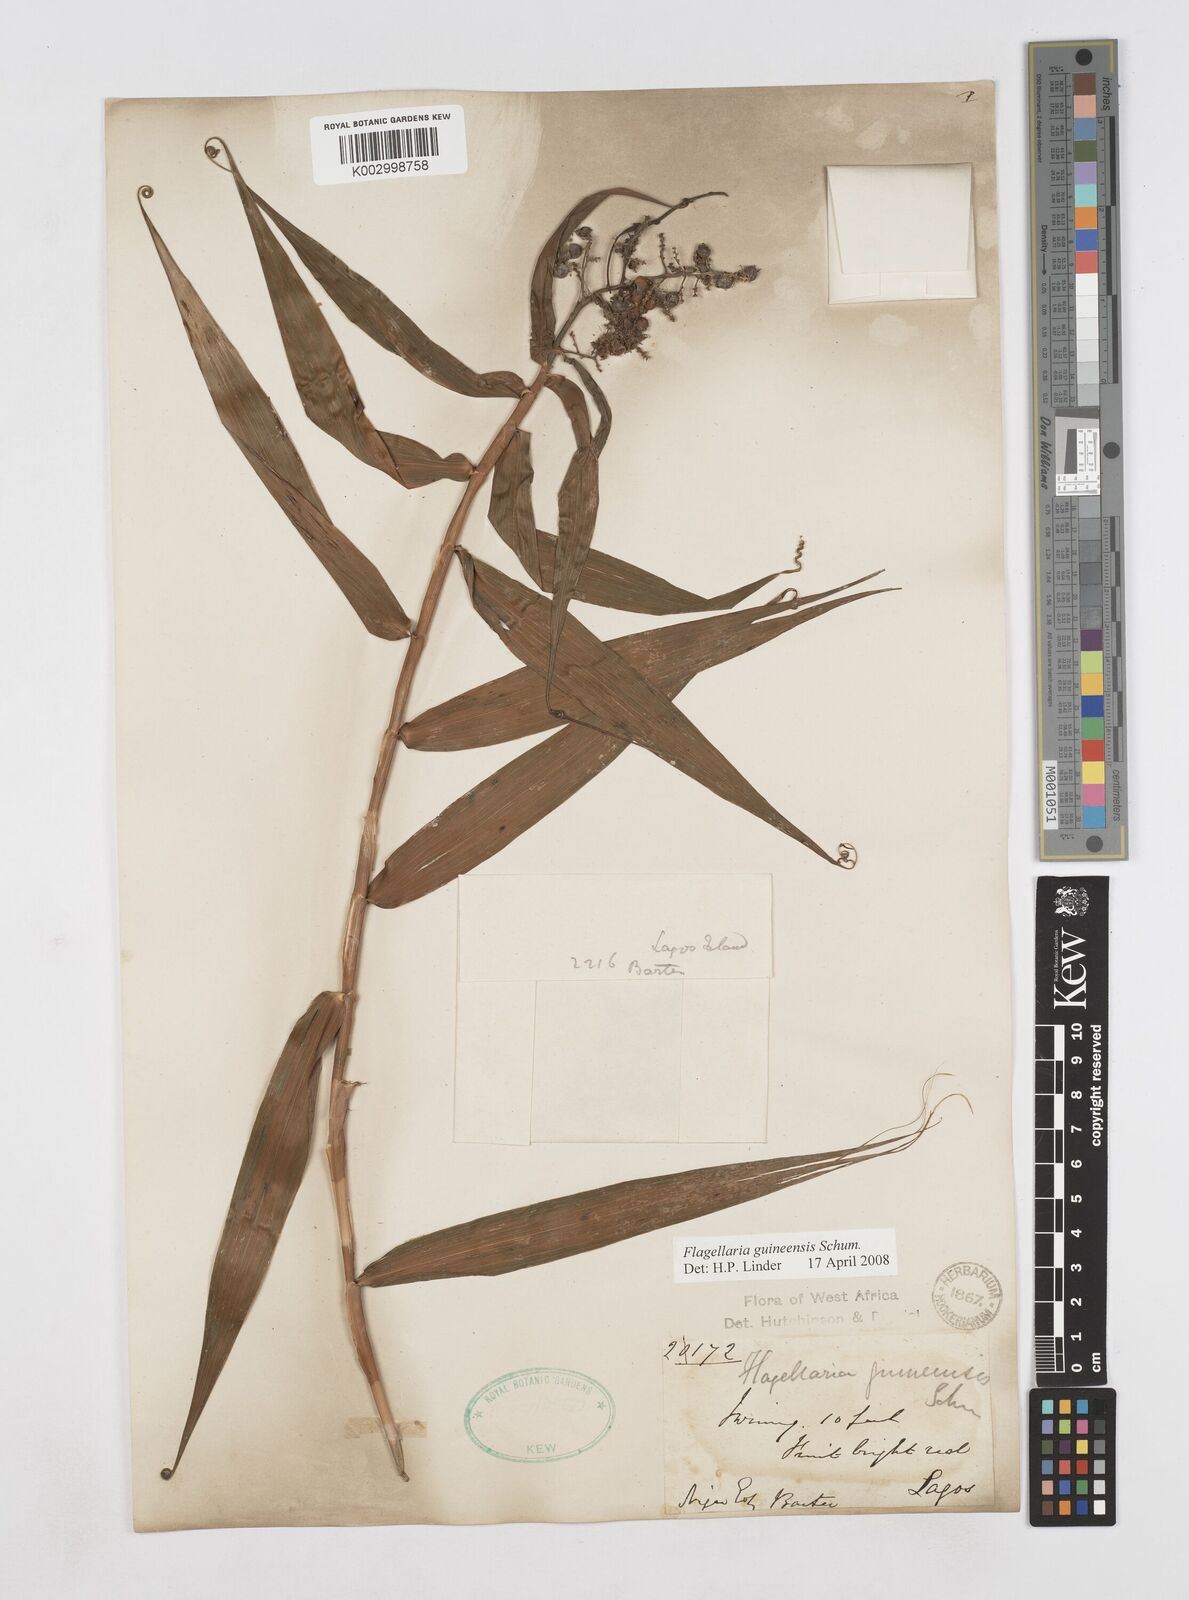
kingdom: Plantae
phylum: Tracheophyta
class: Liliopsida
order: Poales
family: Flagellariaceae
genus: Flagellaria
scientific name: Flagellaria guineensis
